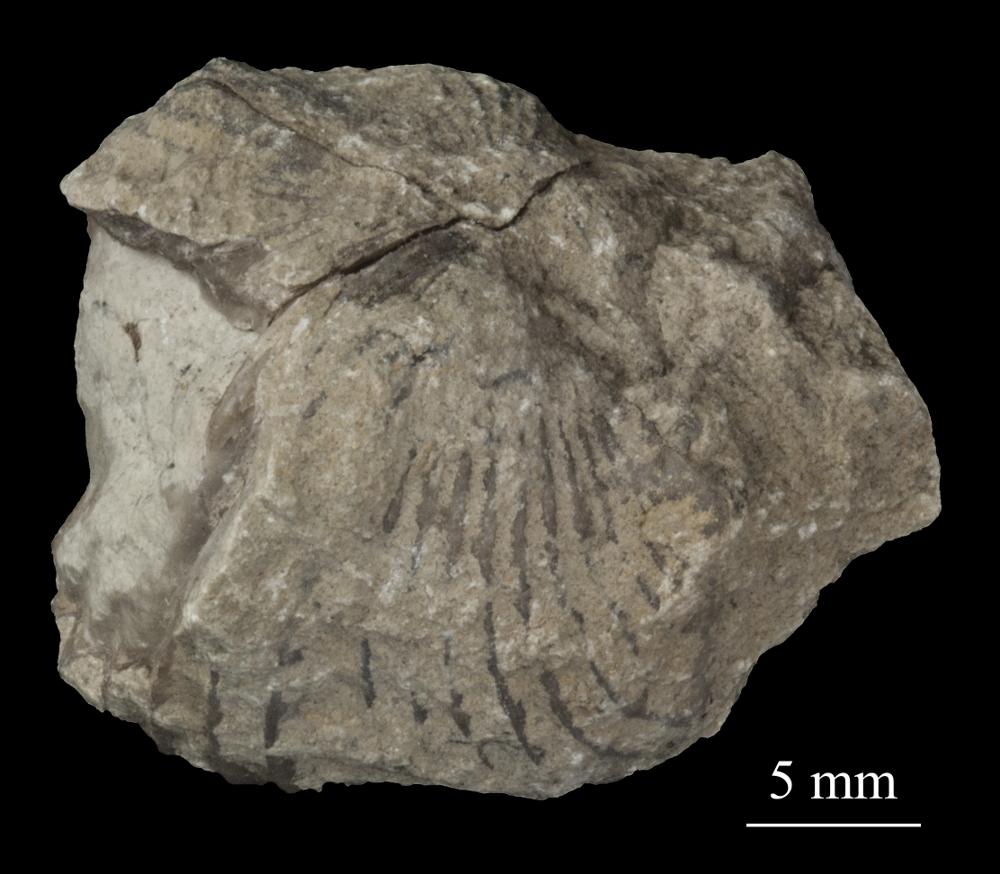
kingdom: Animalia
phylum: Brachiopoda
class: Rhynchonellata
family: Plectorthidae
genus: Platystrophia
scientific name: Platystrophia Terebratulites biforatus
